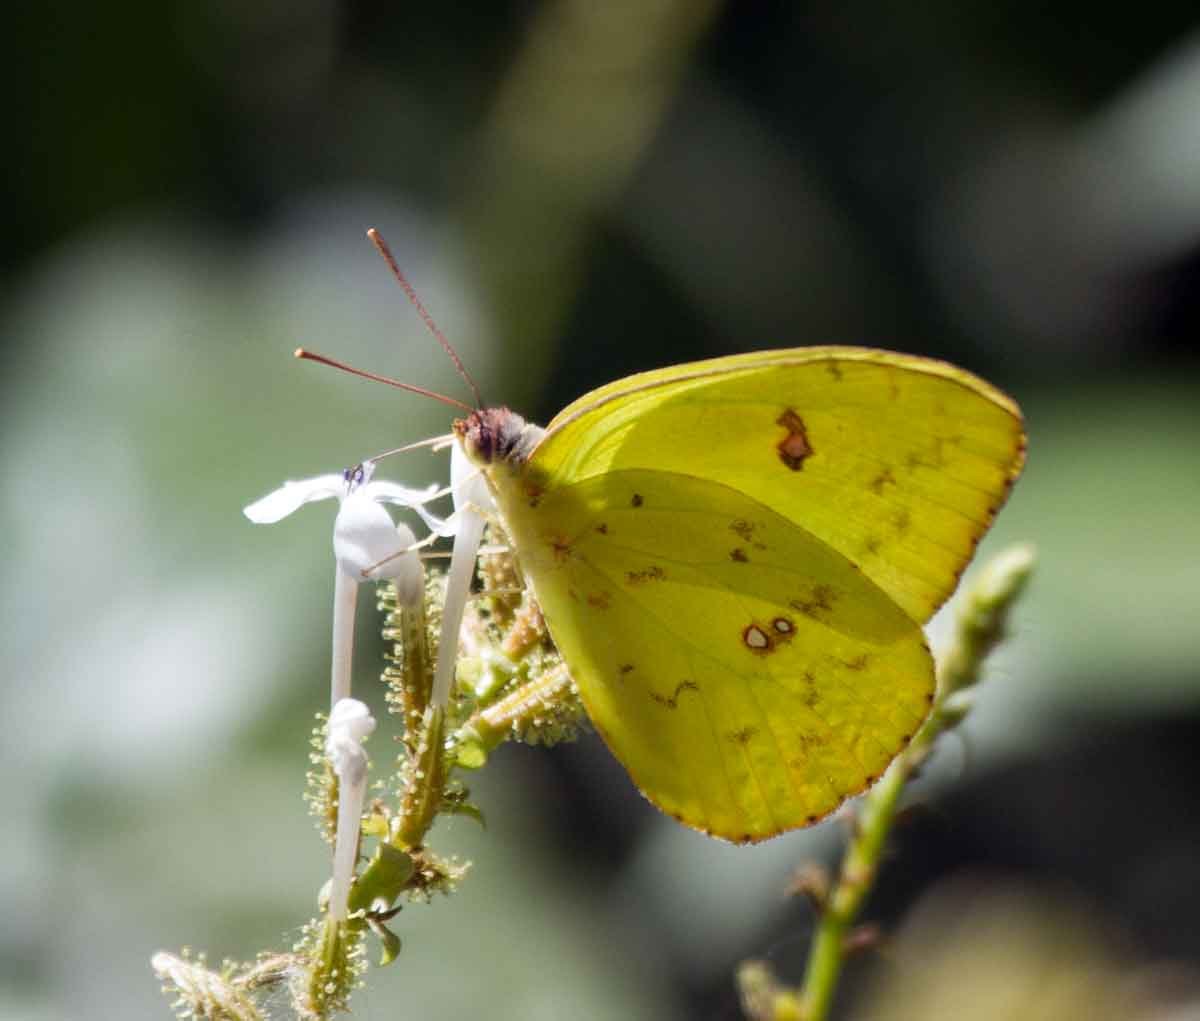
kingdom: Animalia
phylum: Arthropoda
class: Insecta
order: Lepidoptera
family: Pieridae
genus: Colias
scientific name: Colias philodice
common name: Clouded Sulphur
